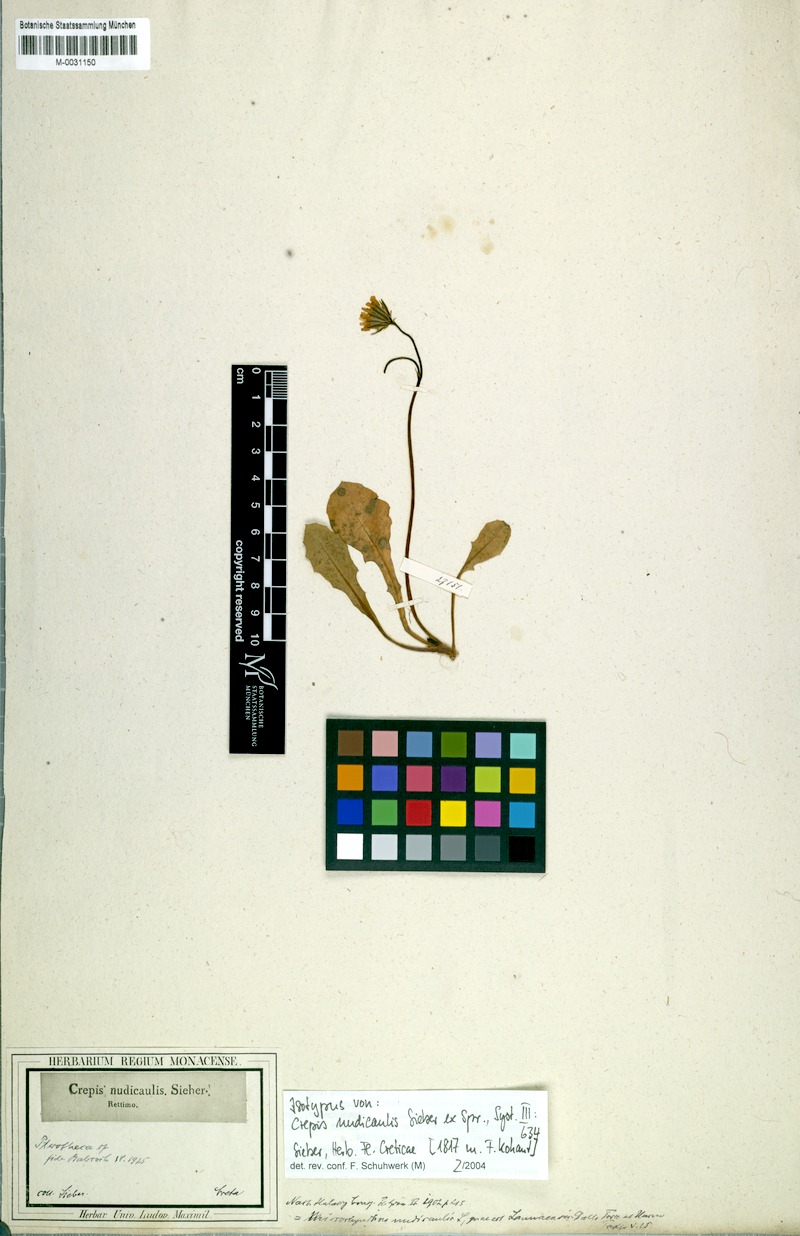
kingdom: Plantae
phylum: Tracheophyta
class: Magnoliopsida
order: Asterales
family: Asteraceae
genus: Crepis
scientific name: Crepis nudicaulis
